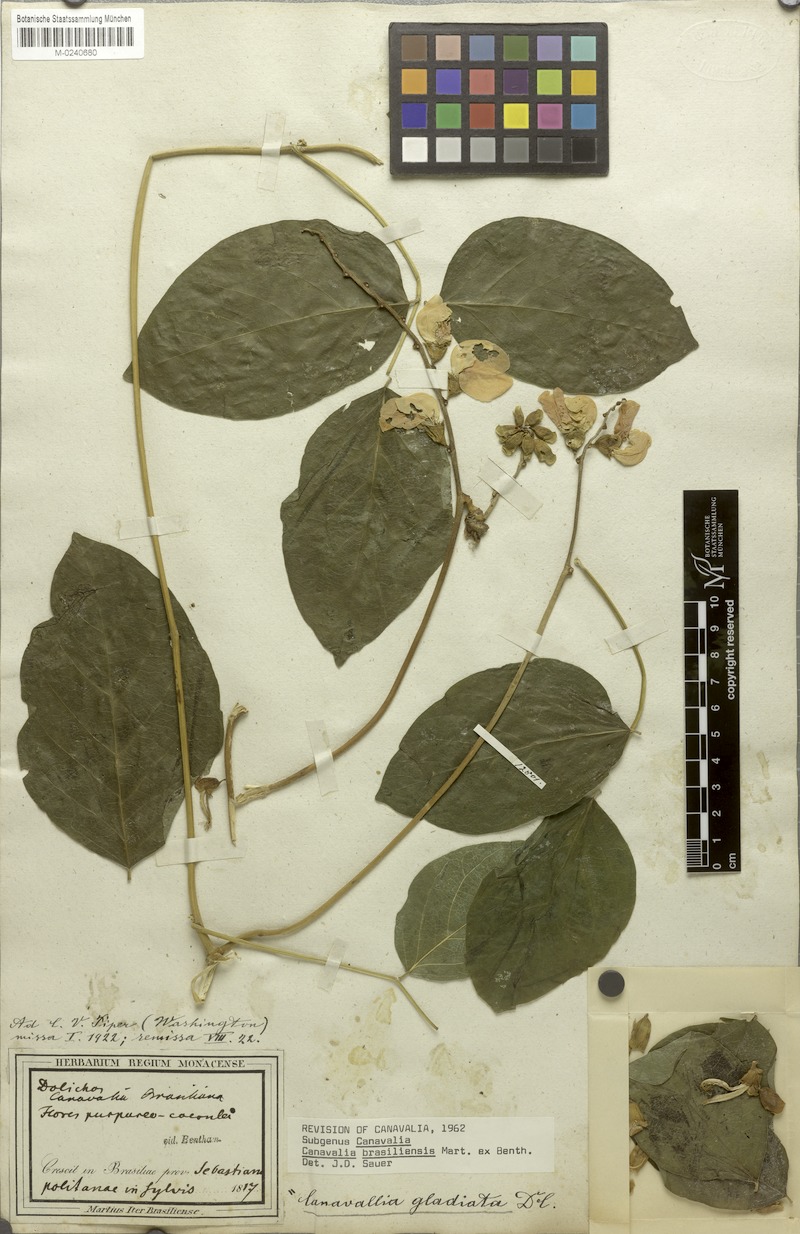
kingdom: Plantae
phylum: Tracheophyta
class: Magnoliopsida
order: Fabales
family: Fabaceae
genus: Canavalia
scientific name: Canavalia brasiliensis
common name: Barbicou-bean
